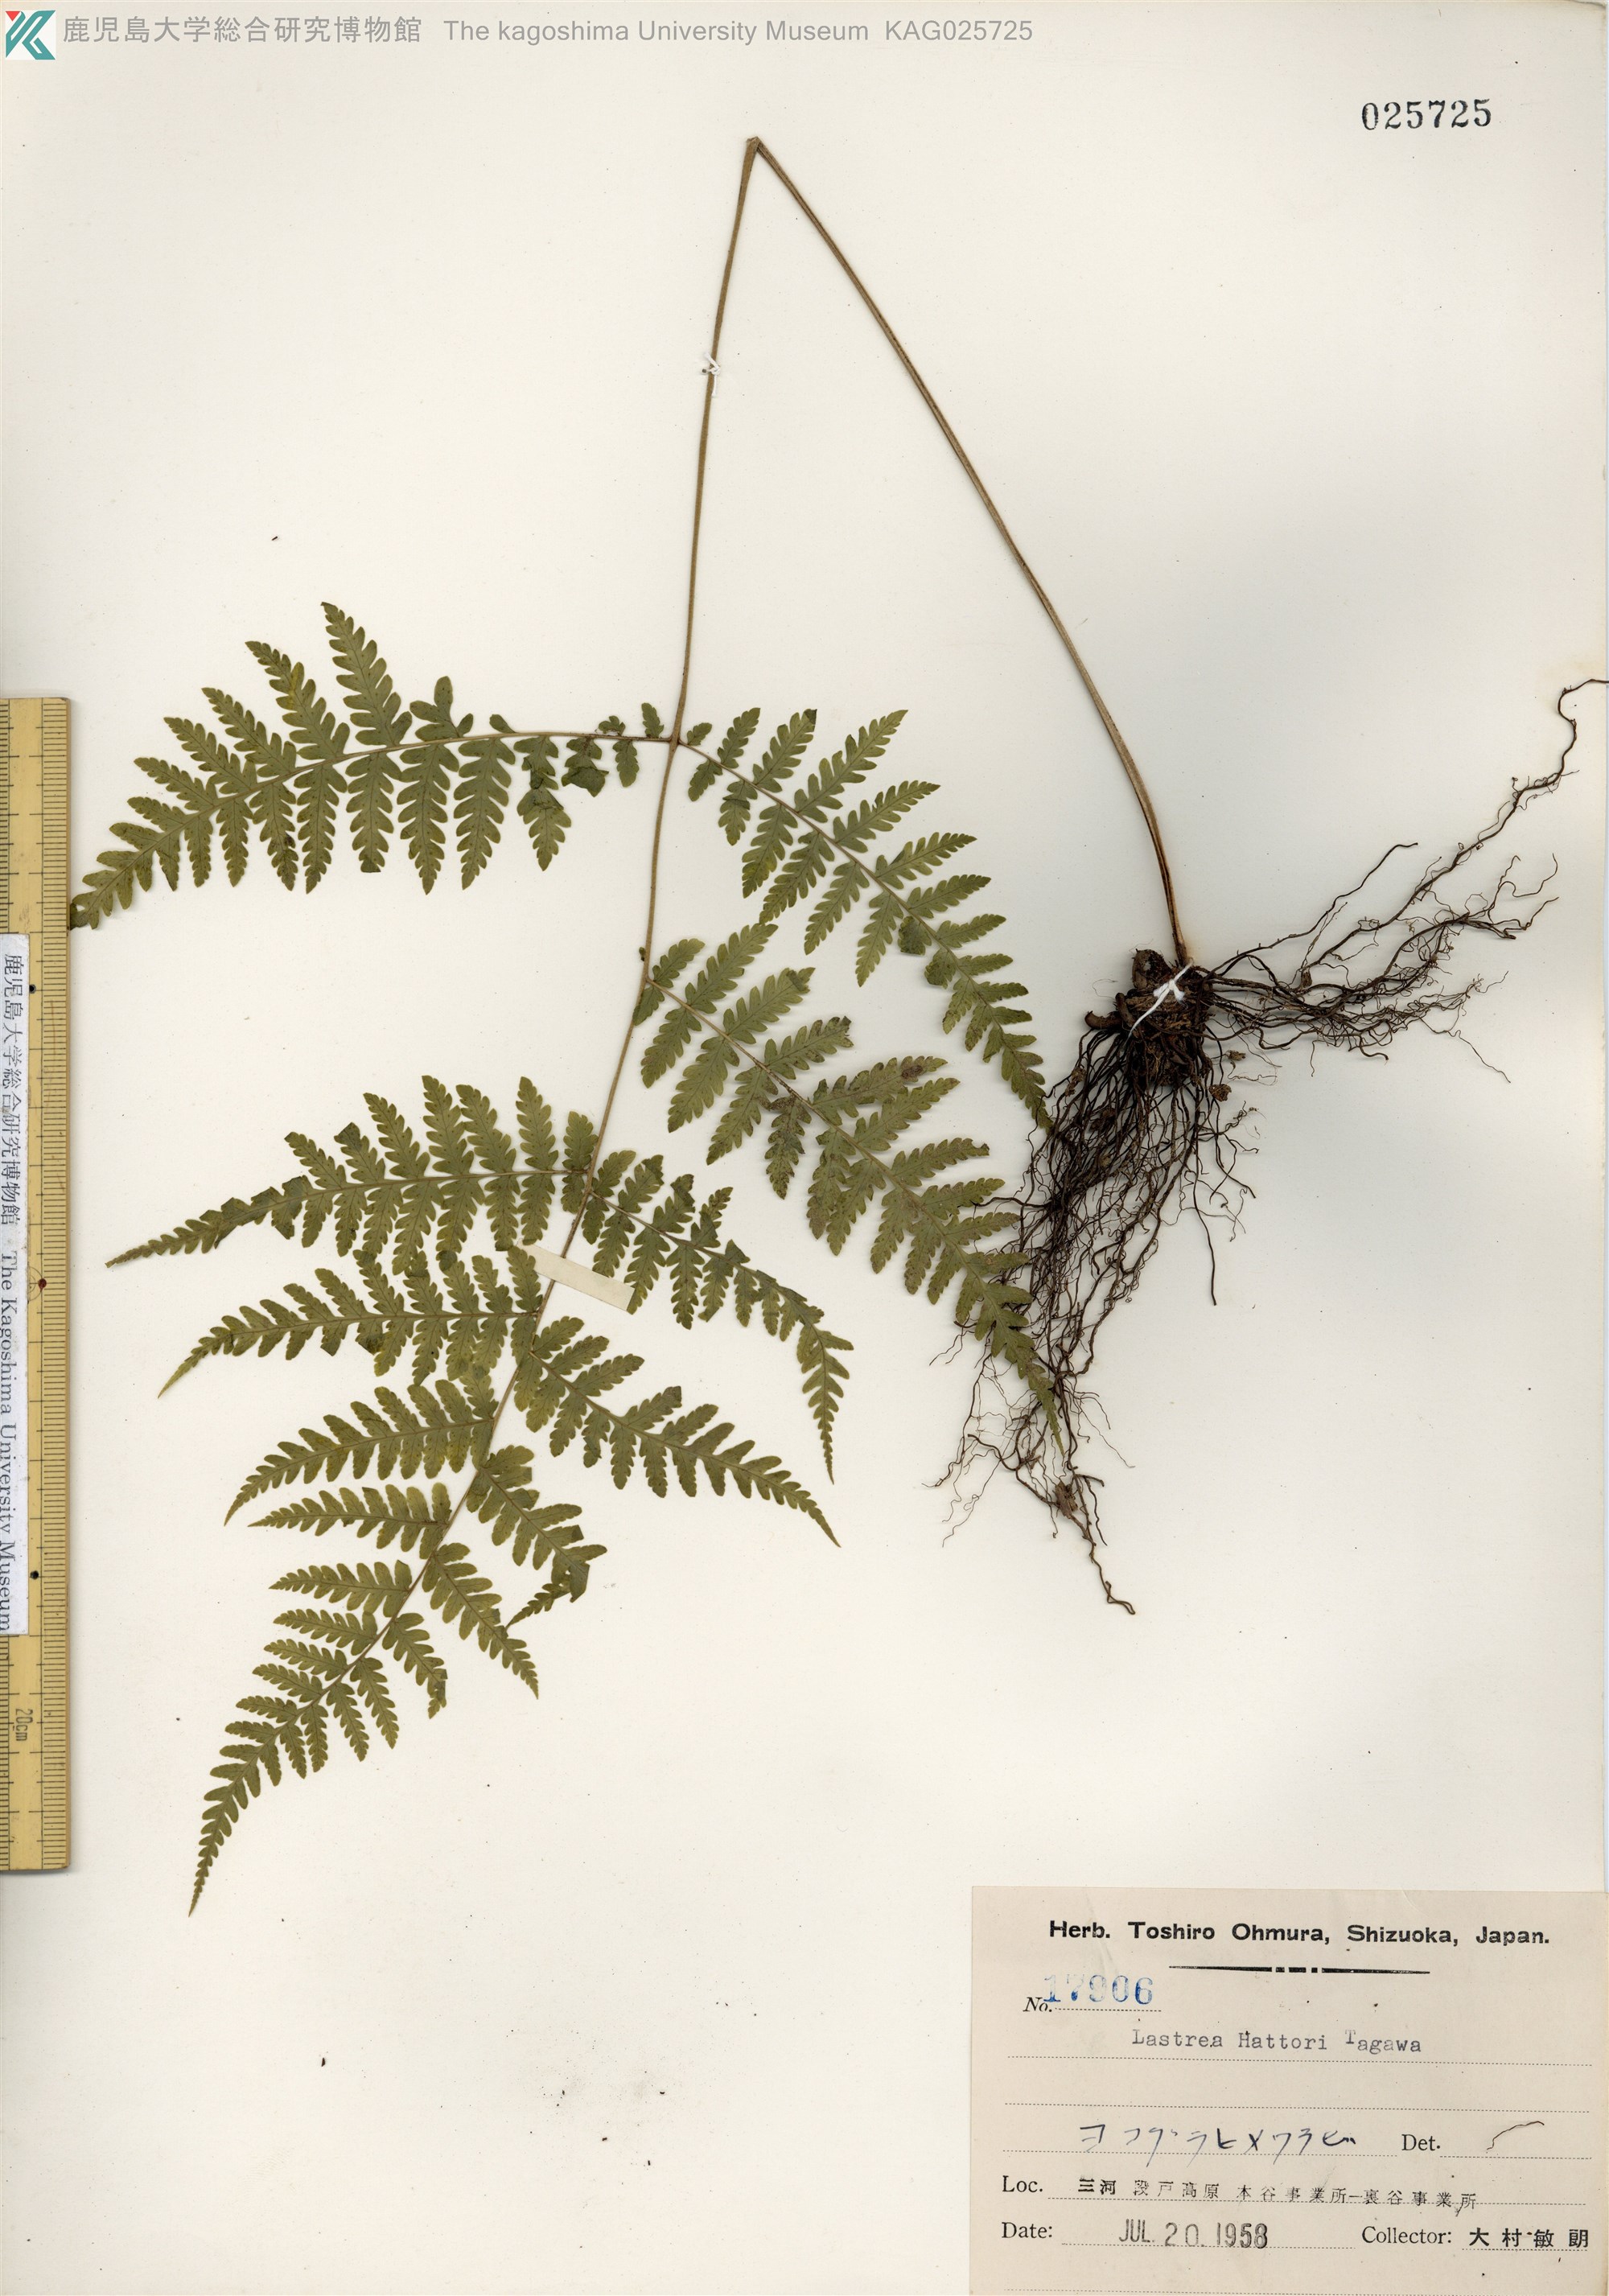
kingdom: Plantae
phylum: Tracheophyta
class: Polypodiopsida
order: Polypodiales
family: Thelypteridaceae
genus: Metathelypteris
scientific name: Metathelypteris hattori
